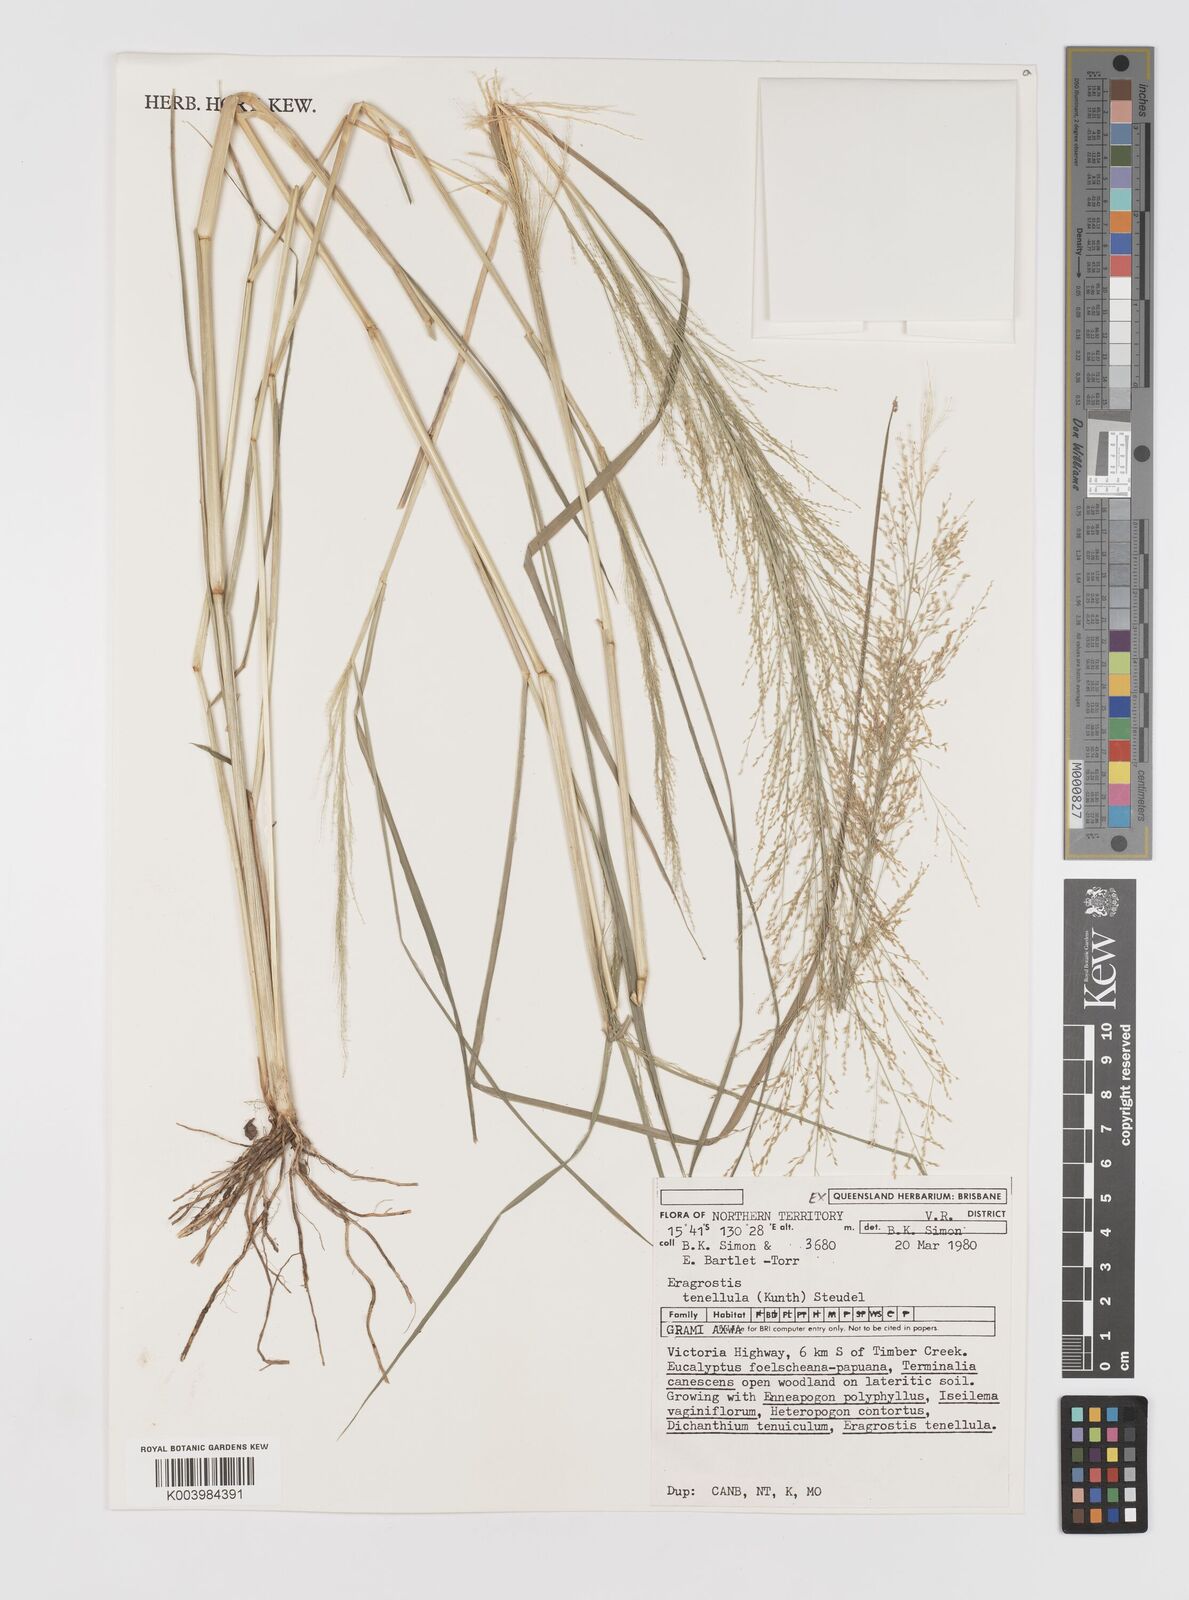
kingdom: Plantae
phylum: Tracheophyta
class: Liliopsida
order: Poales
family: Poaceae
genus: Eragrostis
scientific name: Eragrostis tenellula
